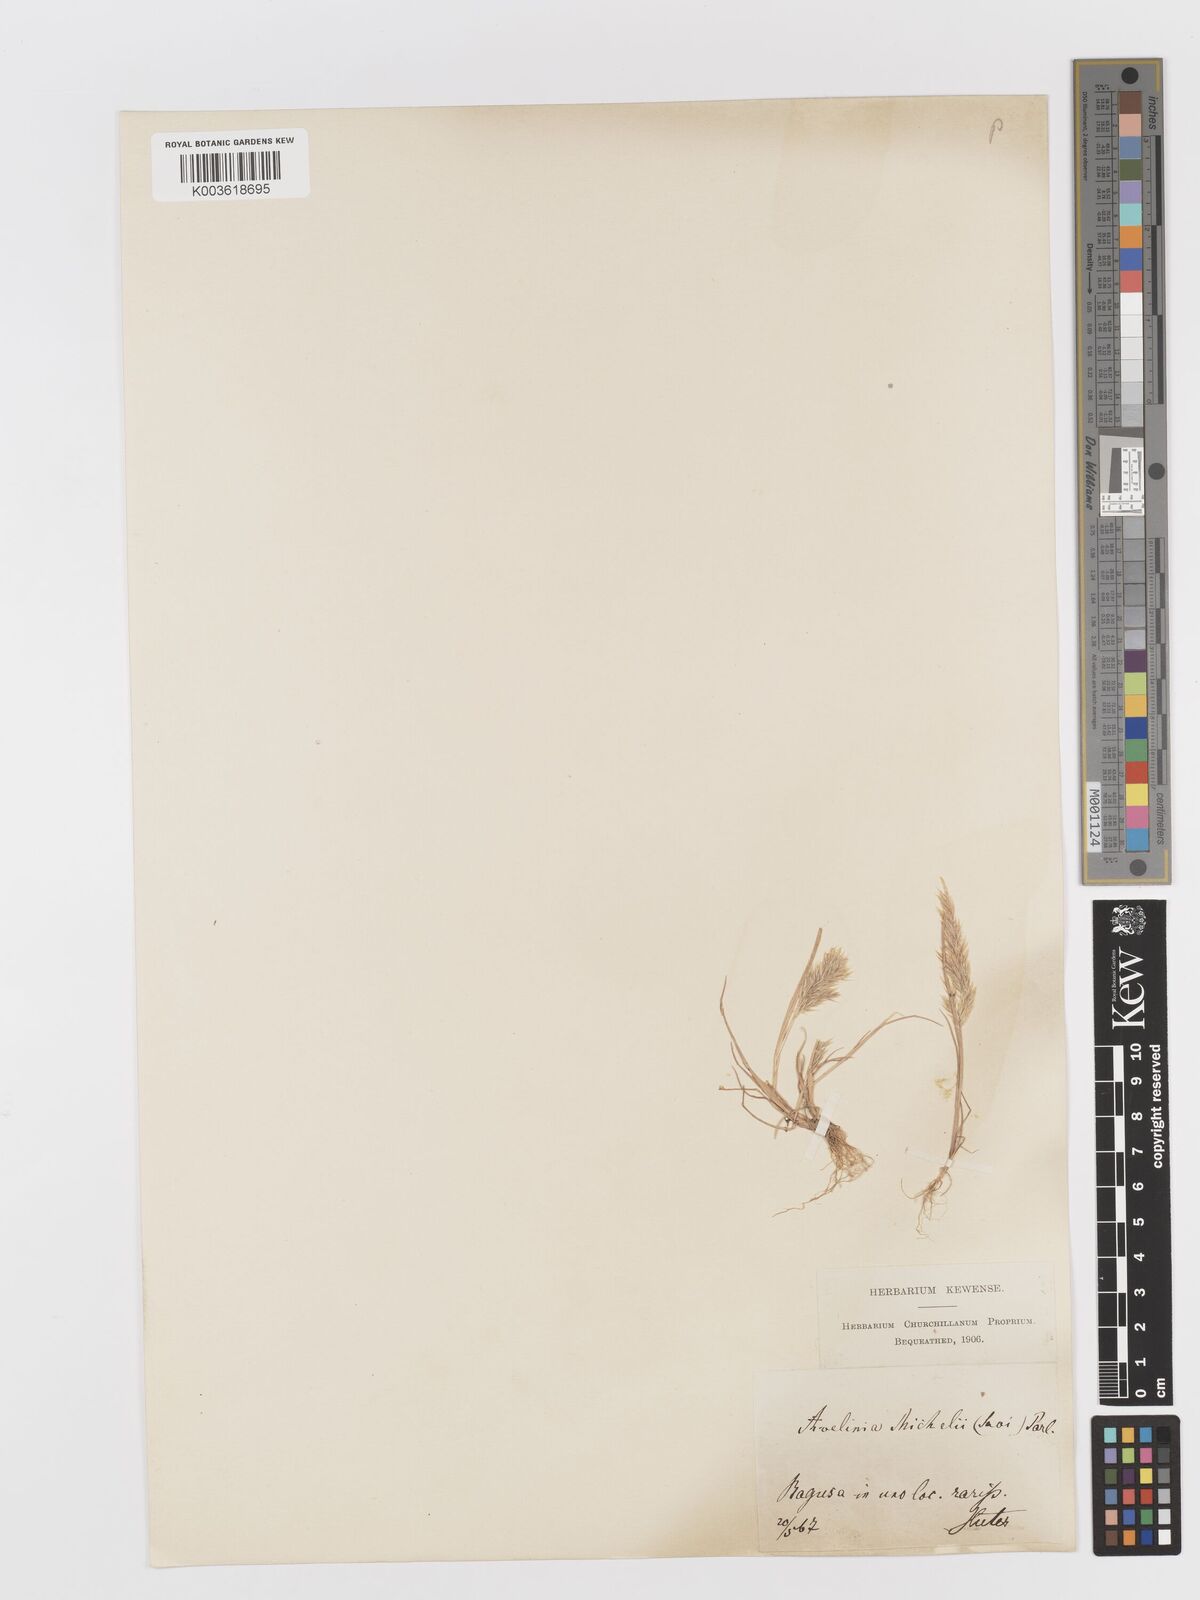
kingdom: Plantae
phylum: Tracheophyta
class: Liliopsida
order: Poales
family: Poaceae
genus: Avellinia
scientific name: Avellinia festucoides
